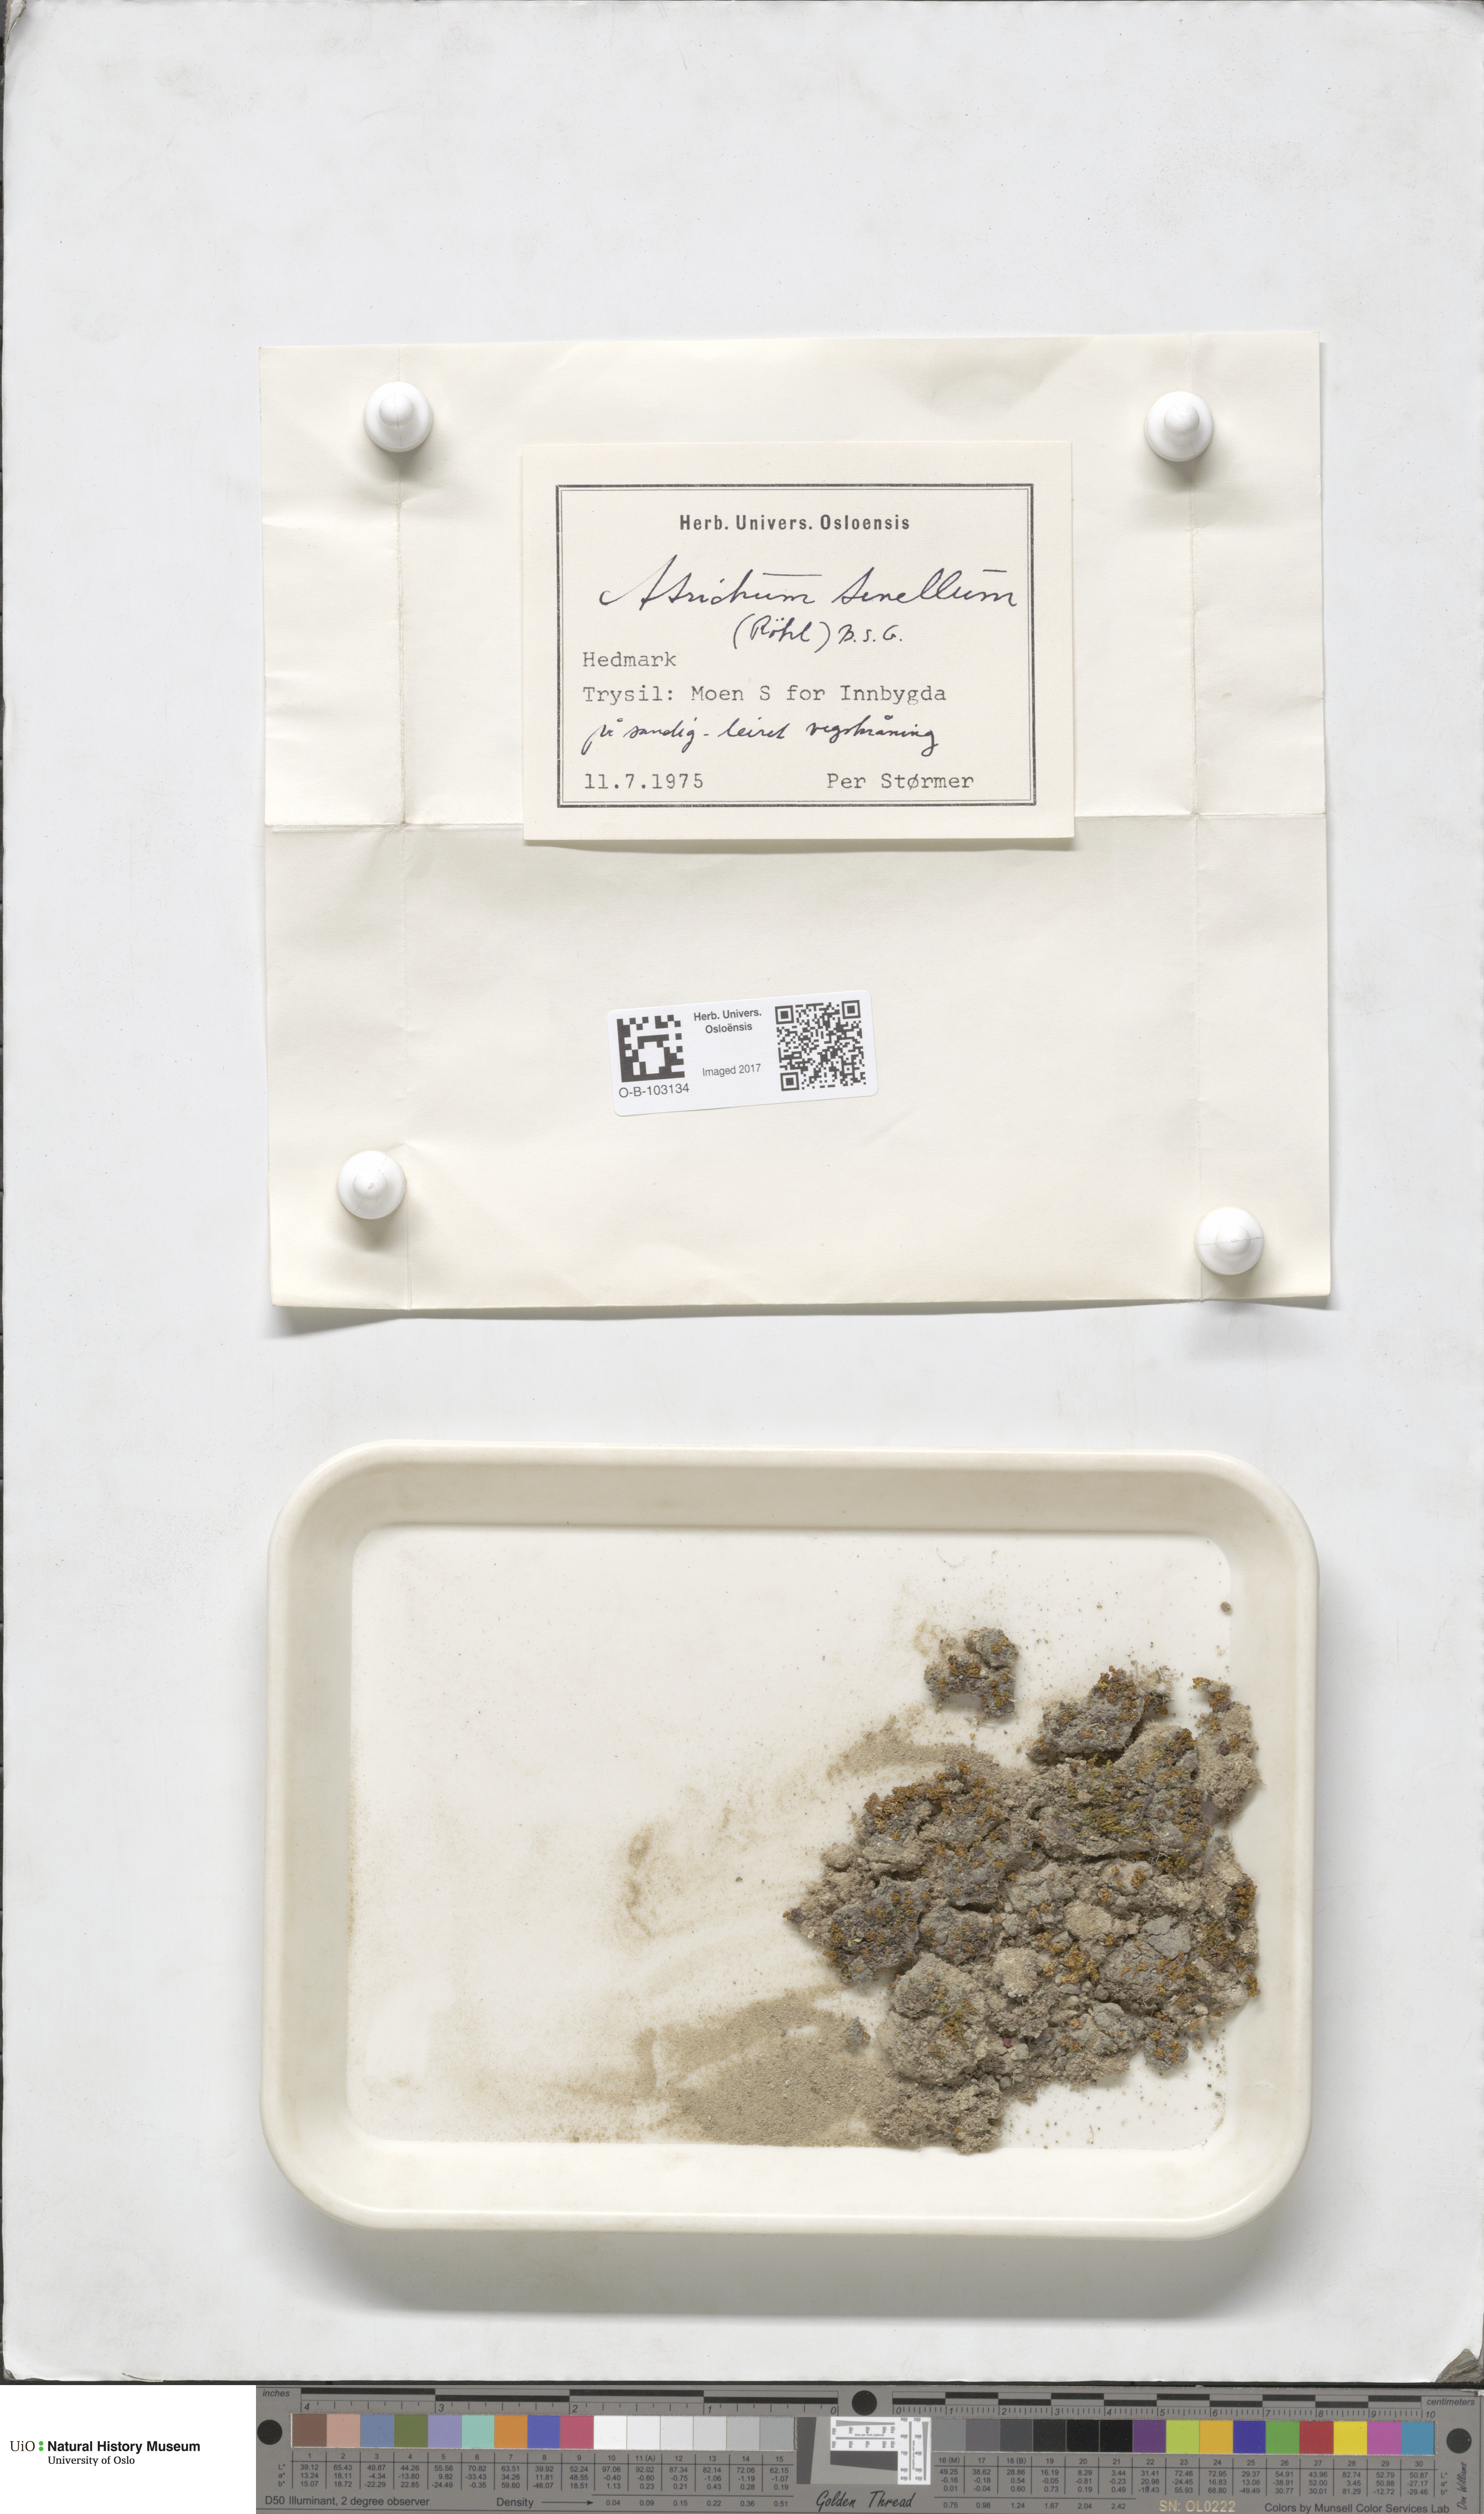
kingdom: Plantae
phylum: Bryophyta
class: Polytrichopsida
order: Polytrichales
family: Polytrichaceae
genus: Atrichum
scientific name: Atrichum tenellum
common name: Slender smoothcap moss
